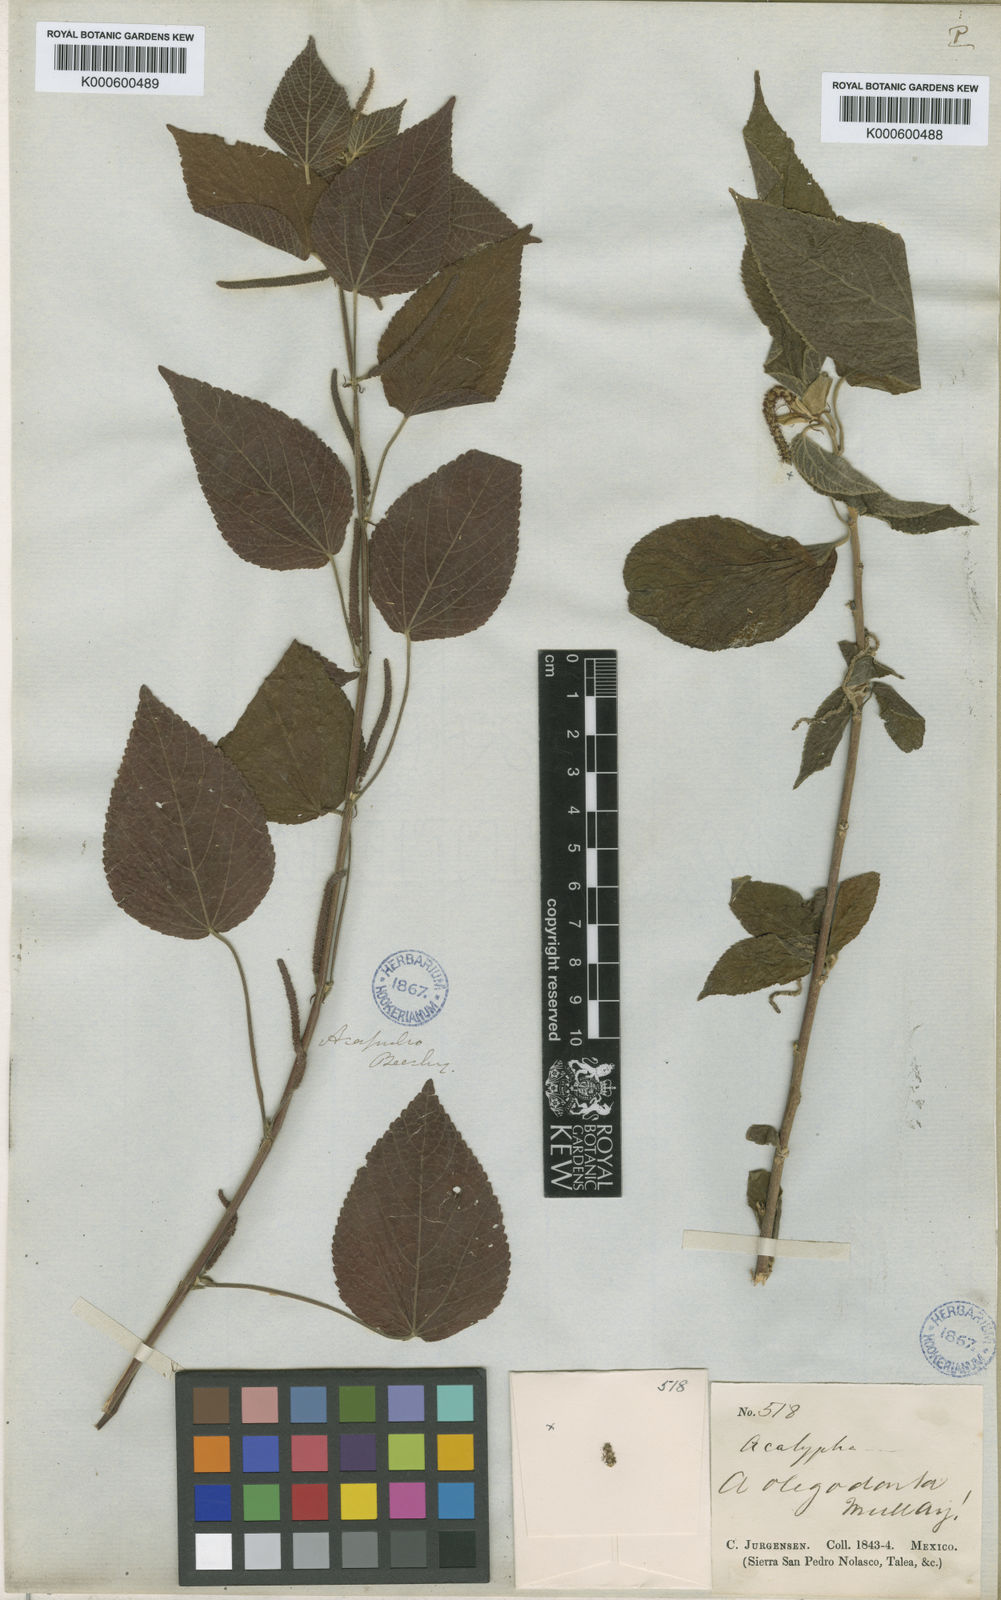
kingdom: Plantae
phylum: Tracheophyta
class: Magnoliopsida
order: Malpighiales
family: Euphorbiaceae
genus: Acalypha
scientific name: Acalypha
